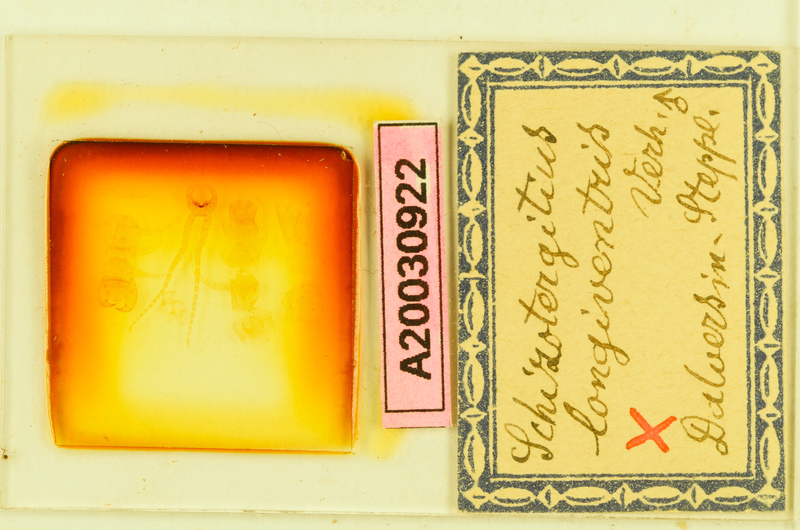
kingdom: Animalia
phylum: Arthropoda
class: Chilopoda
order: Lithobiomorpha
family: Lithobiidae
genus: Schizotergitius
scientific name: Schizotergitius longiventris
